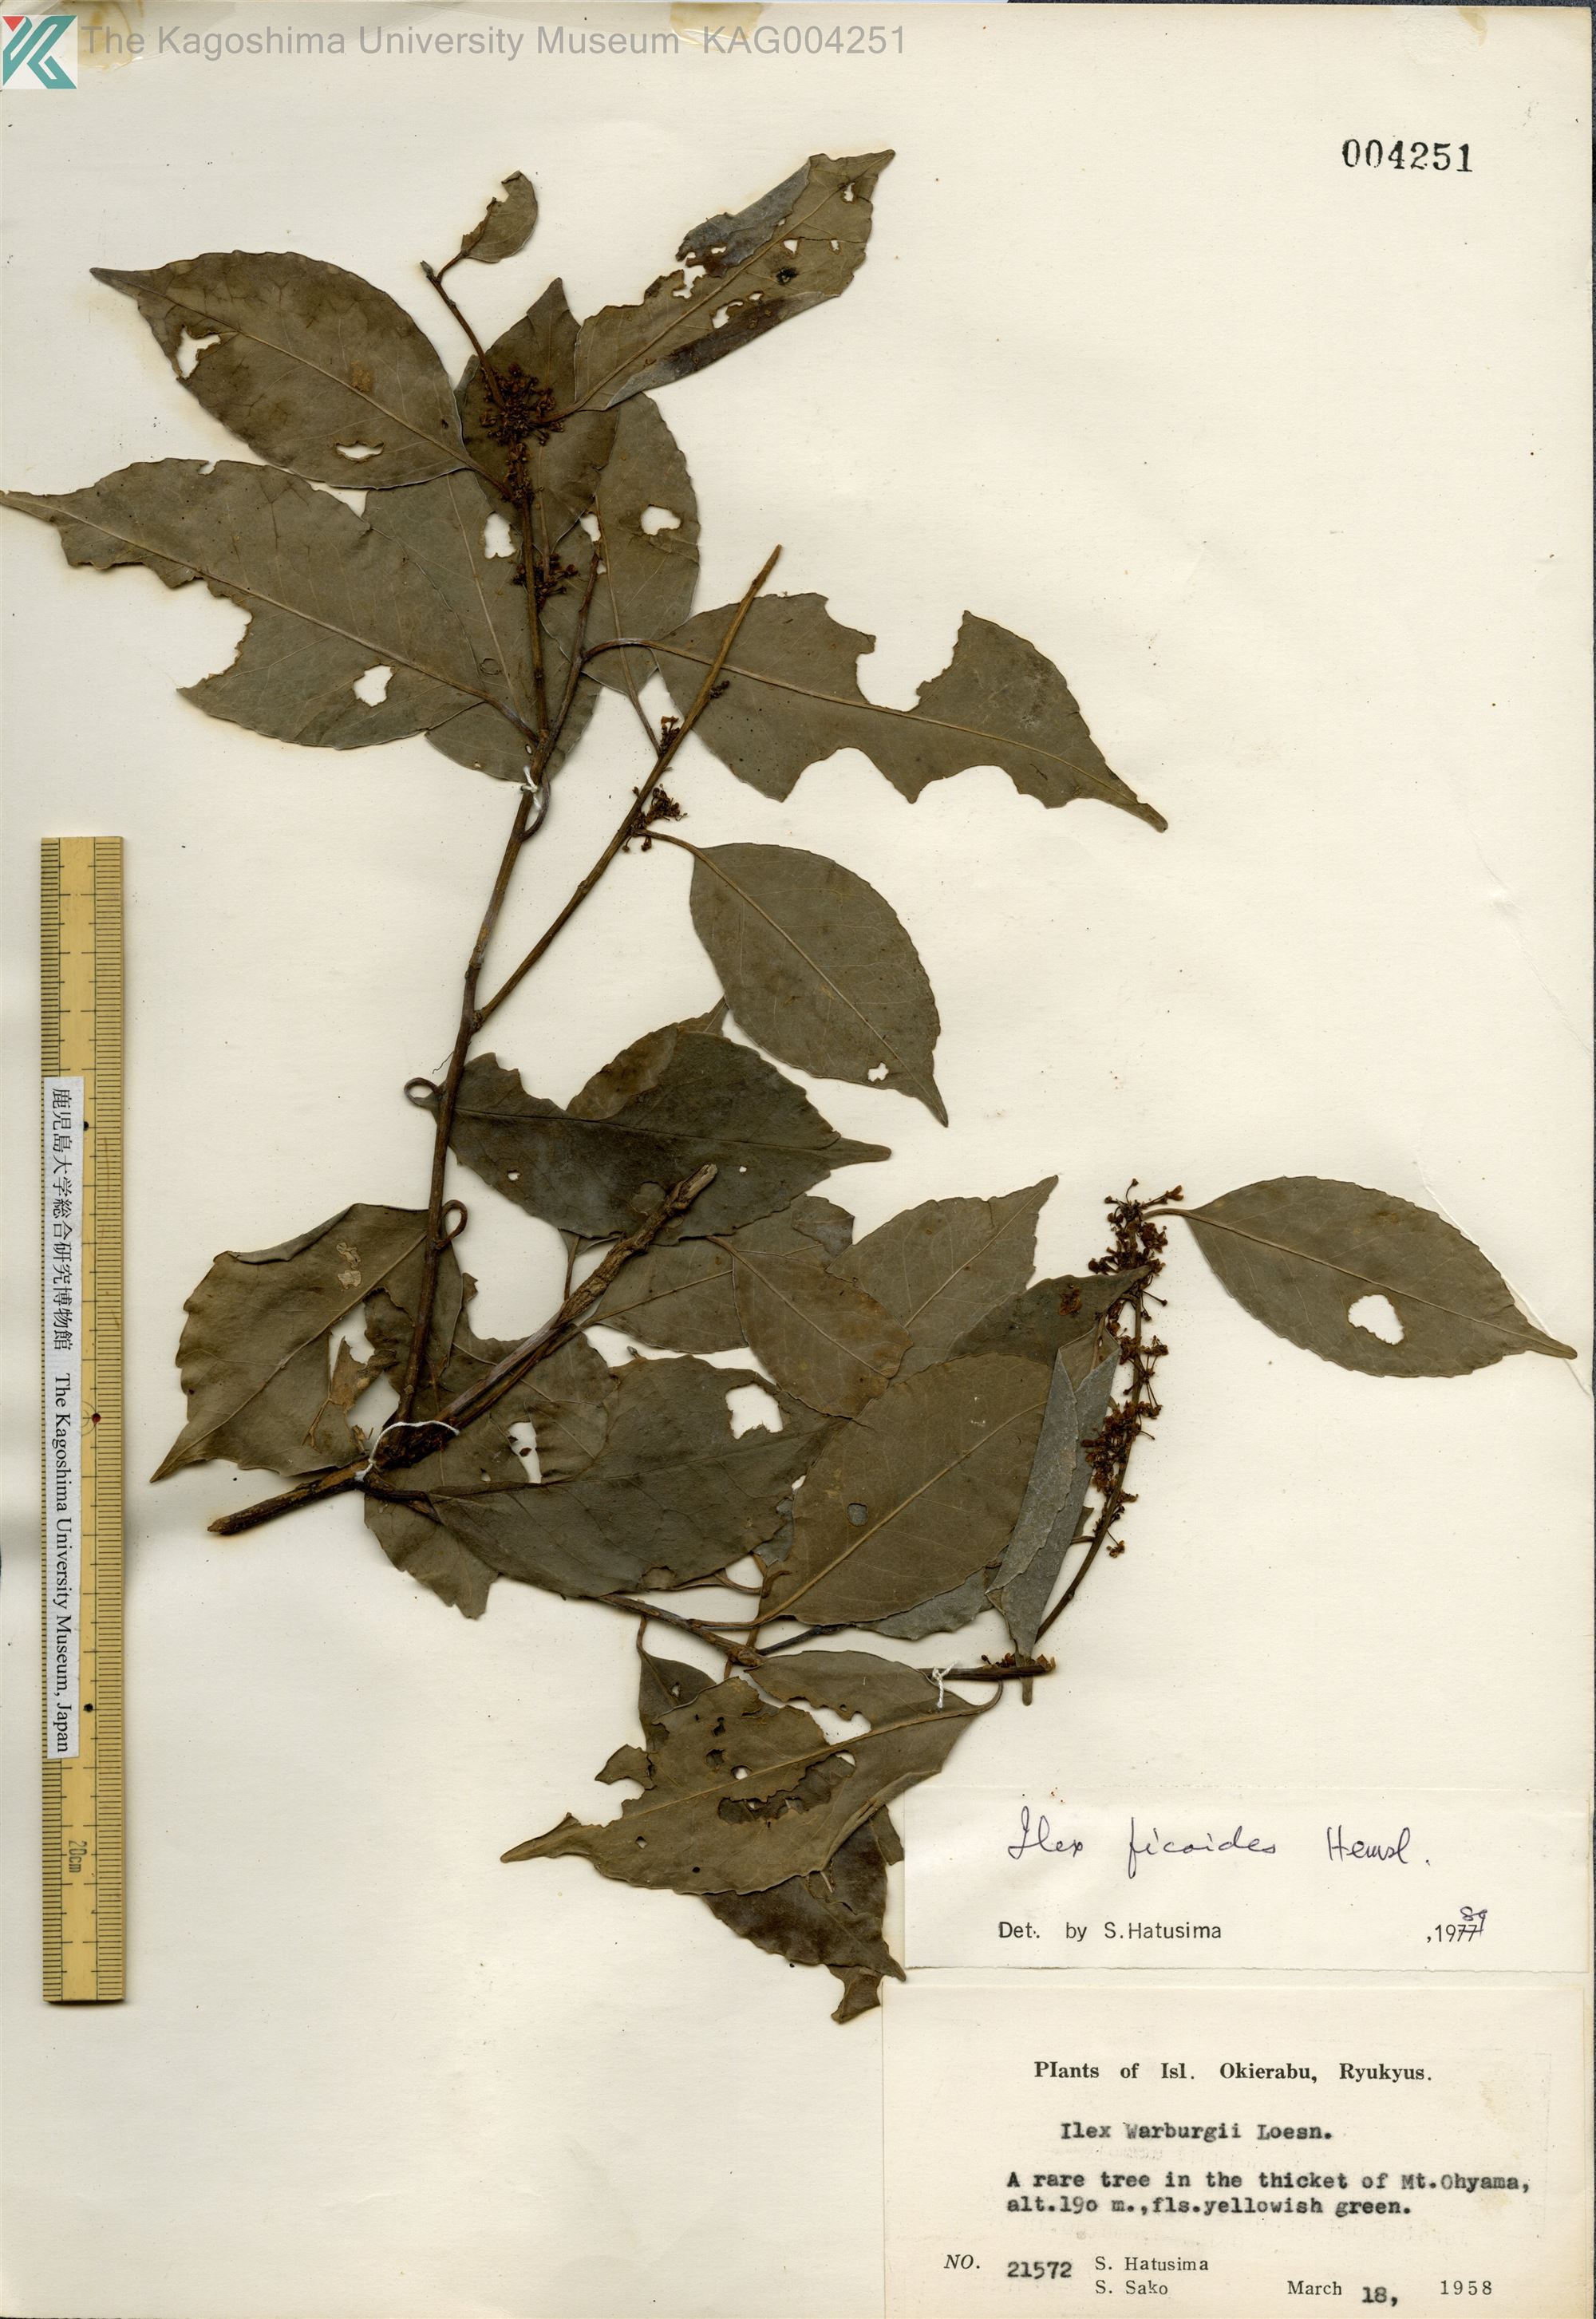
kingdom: Plantae
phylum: Tracheophyta
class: Magnoliopsida
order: Aquifoliales
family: Aquifoliaceae
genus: Ilex
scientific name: Ilex warburgii
